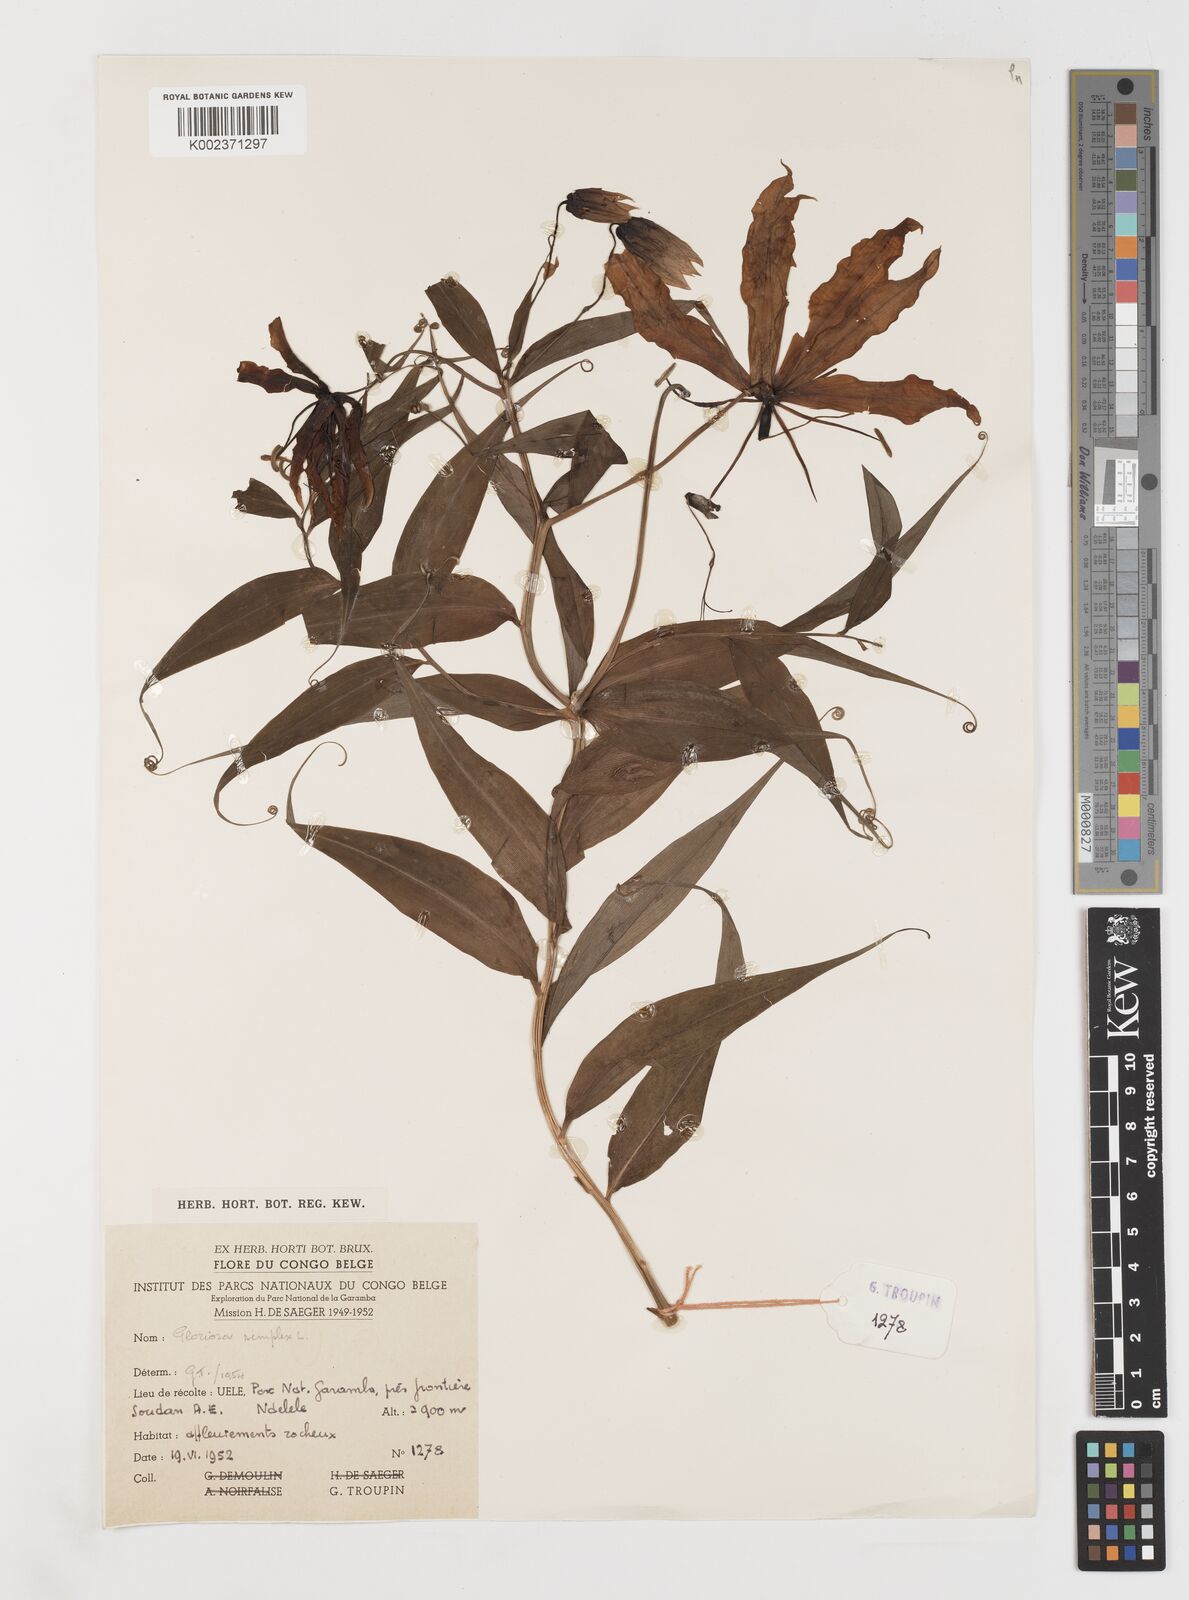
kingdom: Plantae
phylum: Tracheophyta
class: Liliopsida
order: Liliales
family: Colchicaceae
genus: Gloriosa
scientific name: Gloriosa simplex
